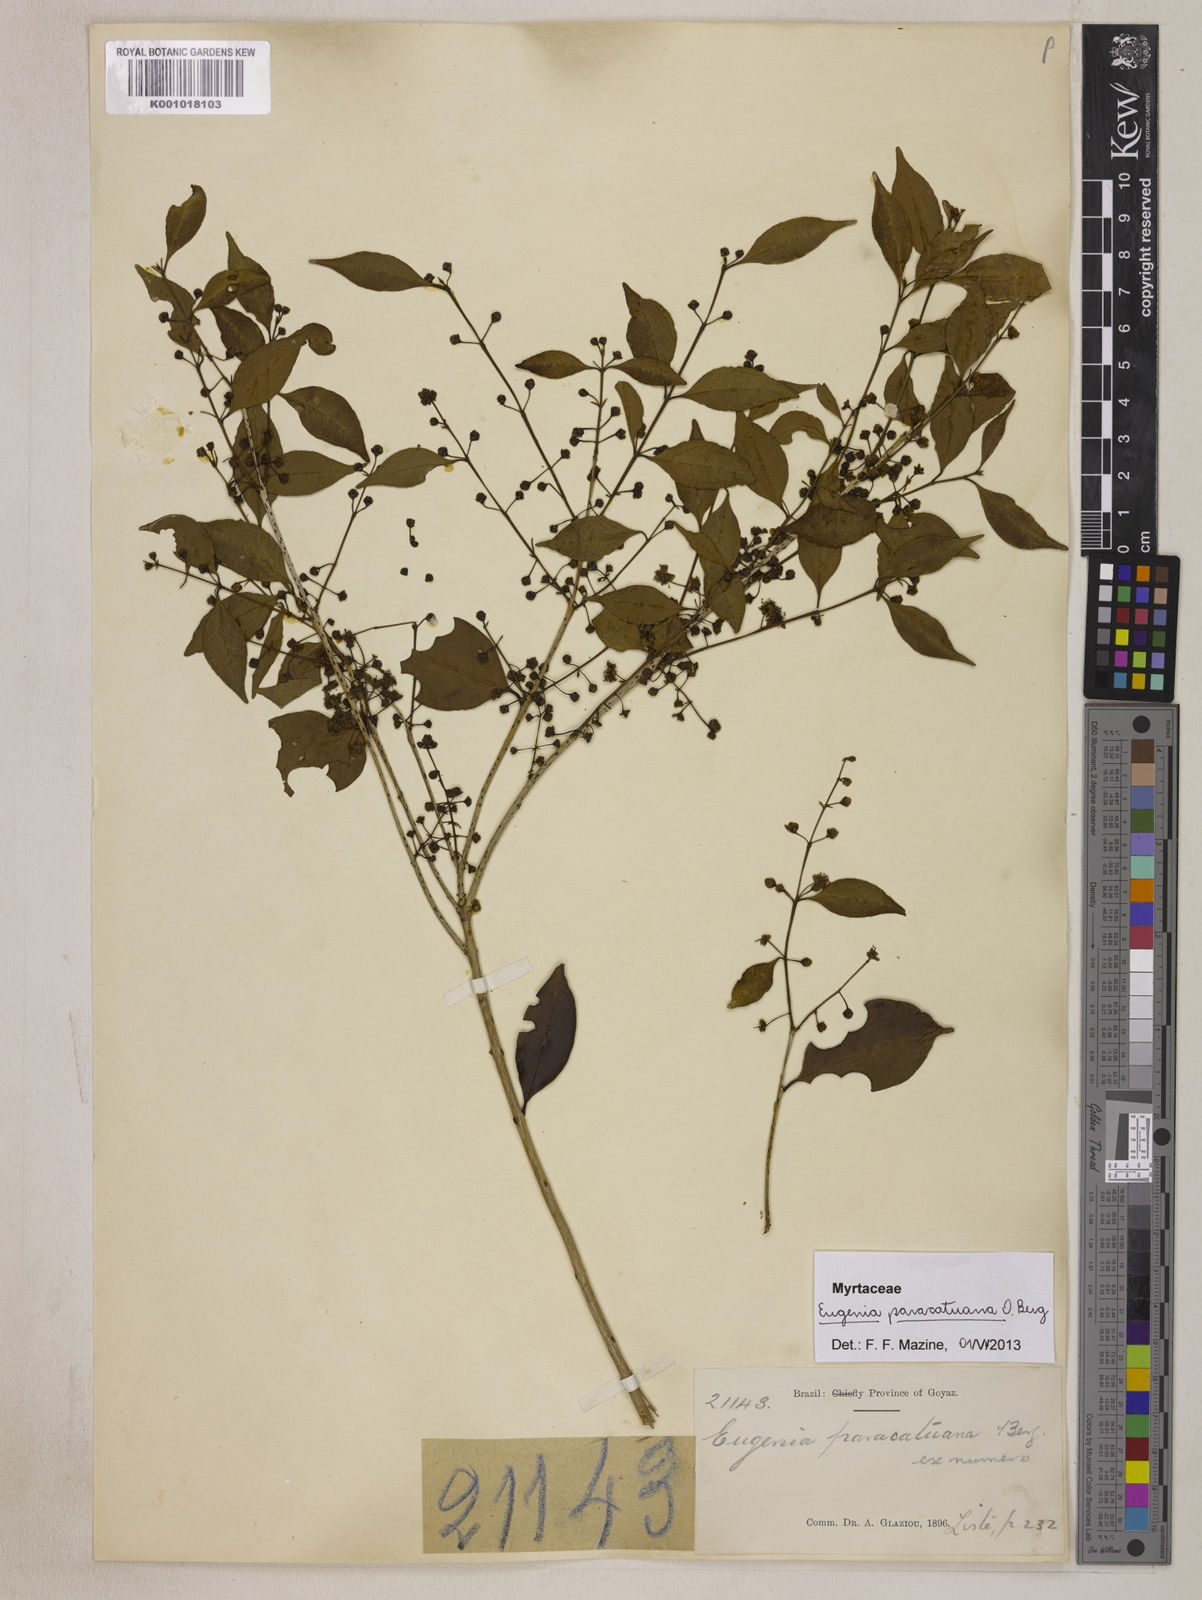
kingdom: Plantae
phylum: Tracheophyta
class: Magnoliopsida
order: Myrtales
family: Myrtaceae
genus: Eugenia
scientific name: Eugenia moraviana
